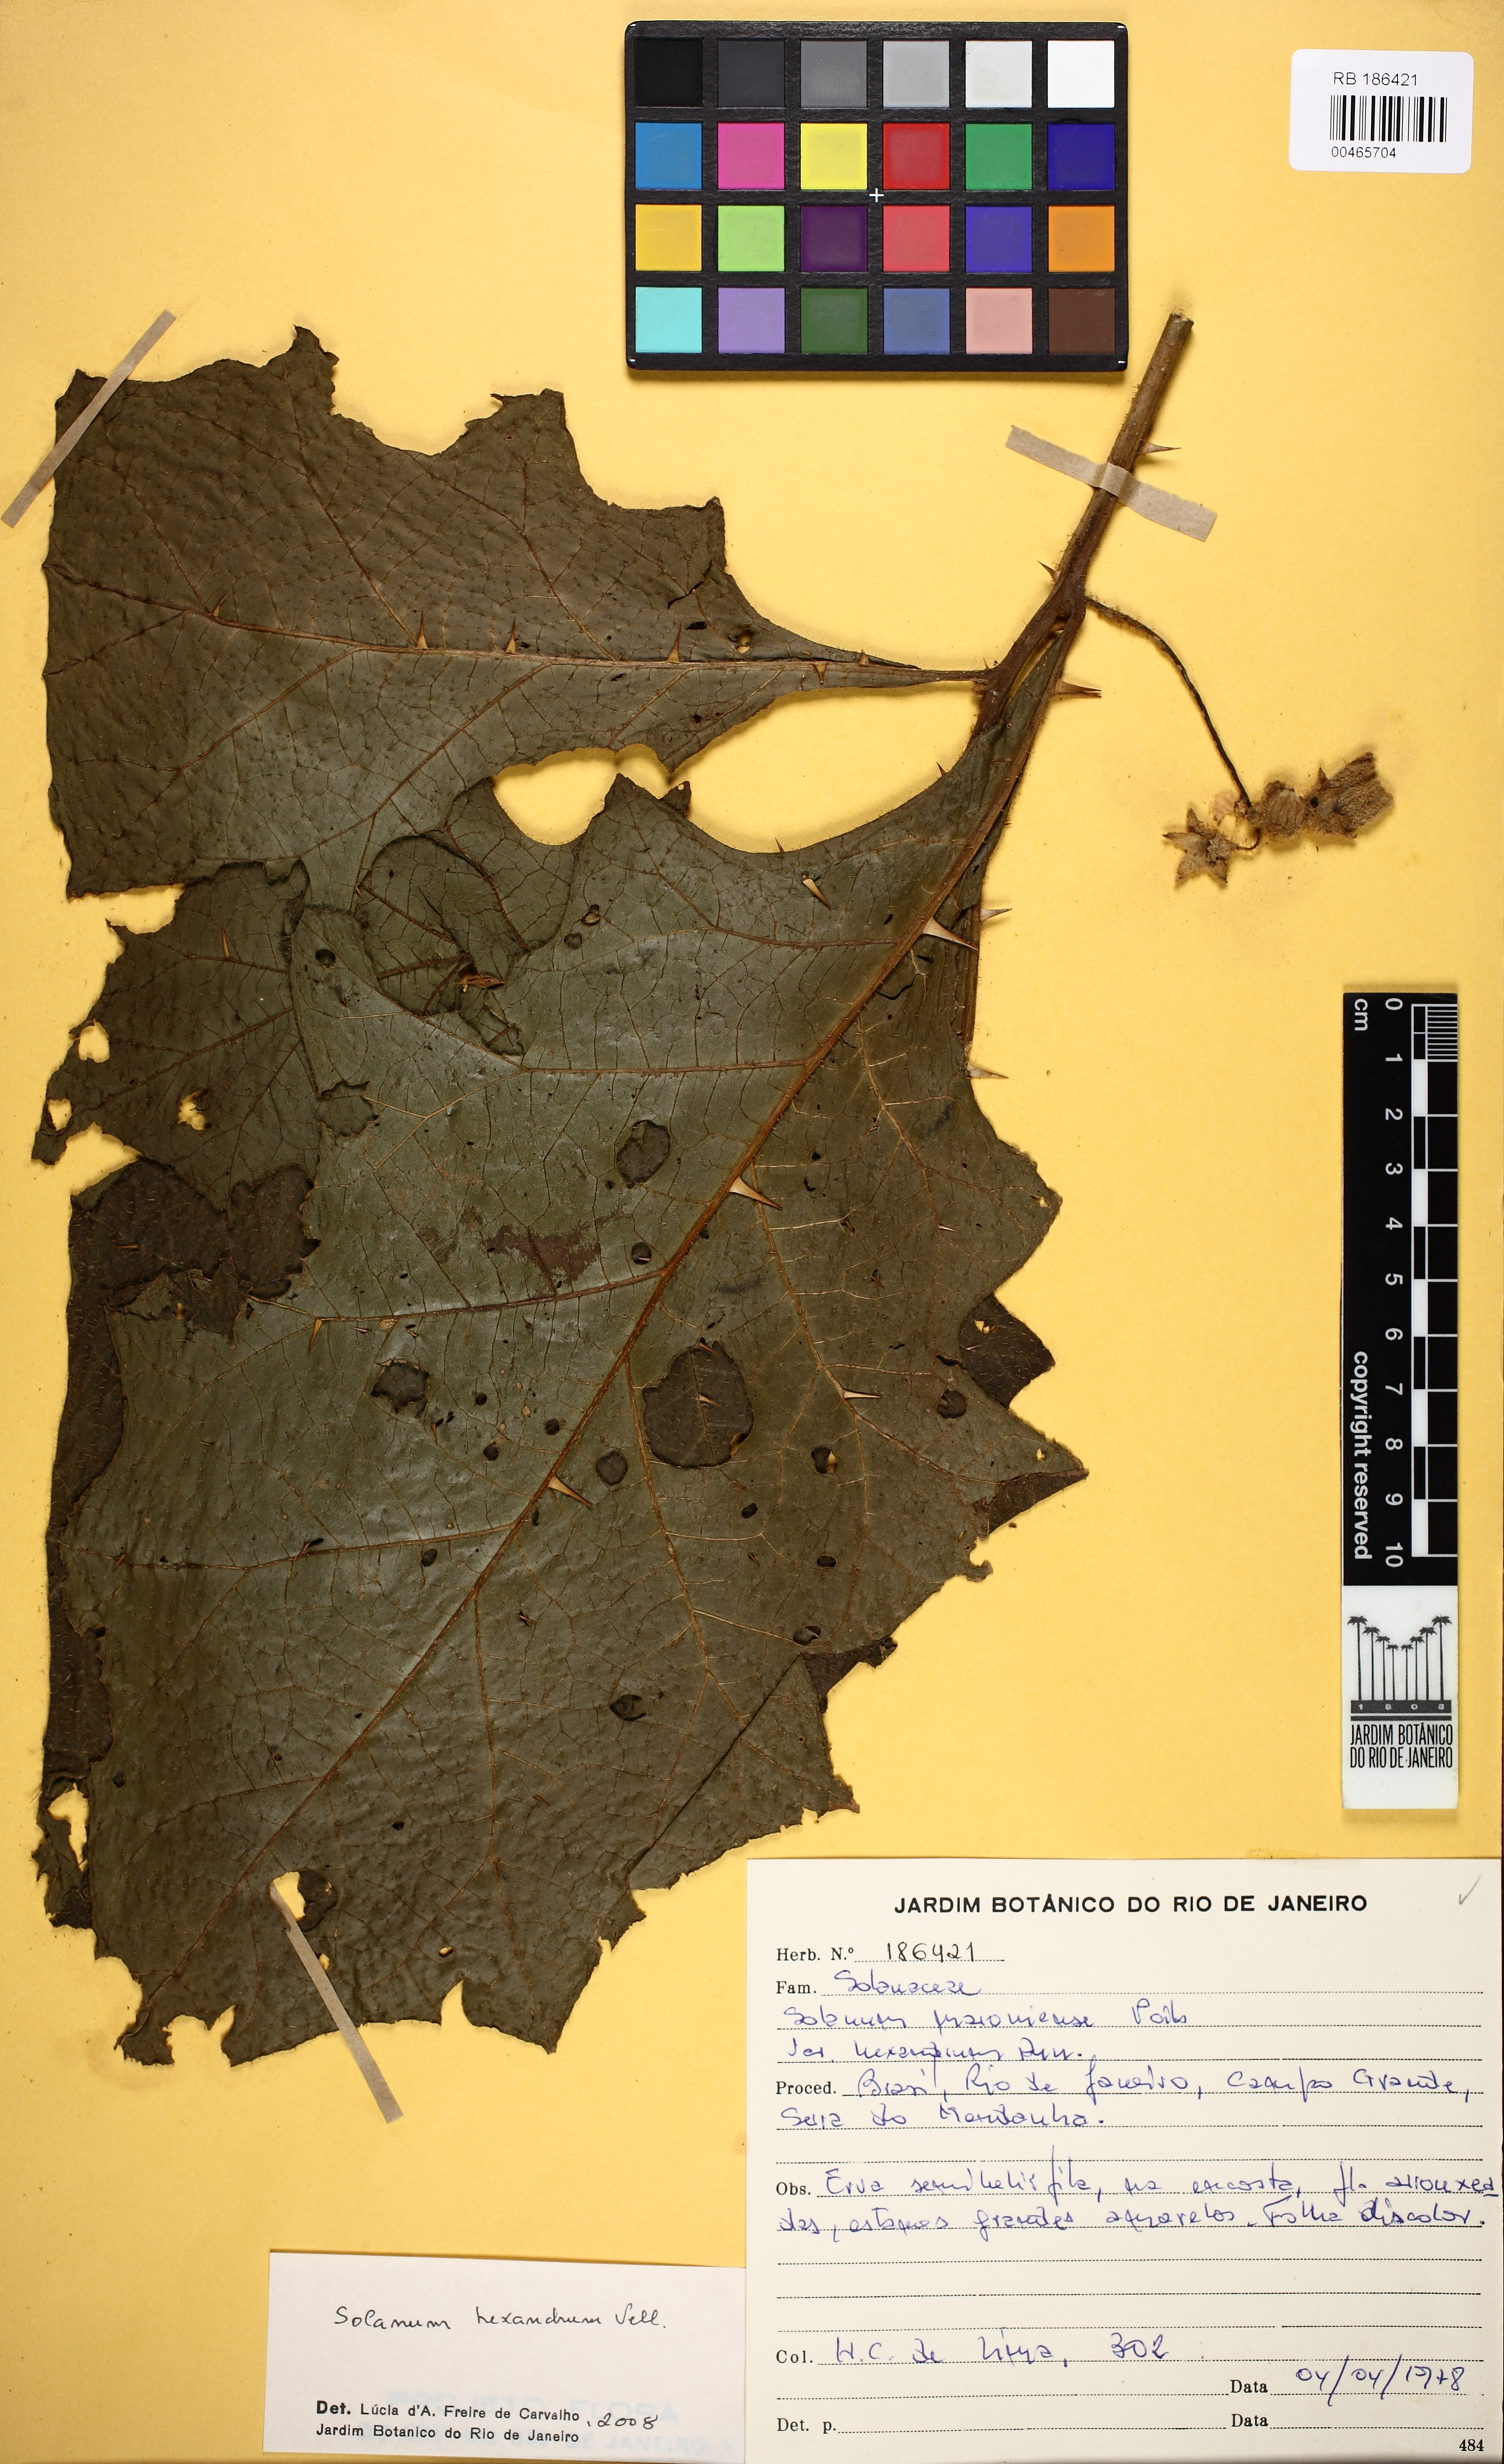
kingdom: Plantae
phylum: Tracheophyta
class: Magnoliopsida
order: Solanales
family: Solanaceae
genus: Solanum
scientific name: Solanum hexandrum
